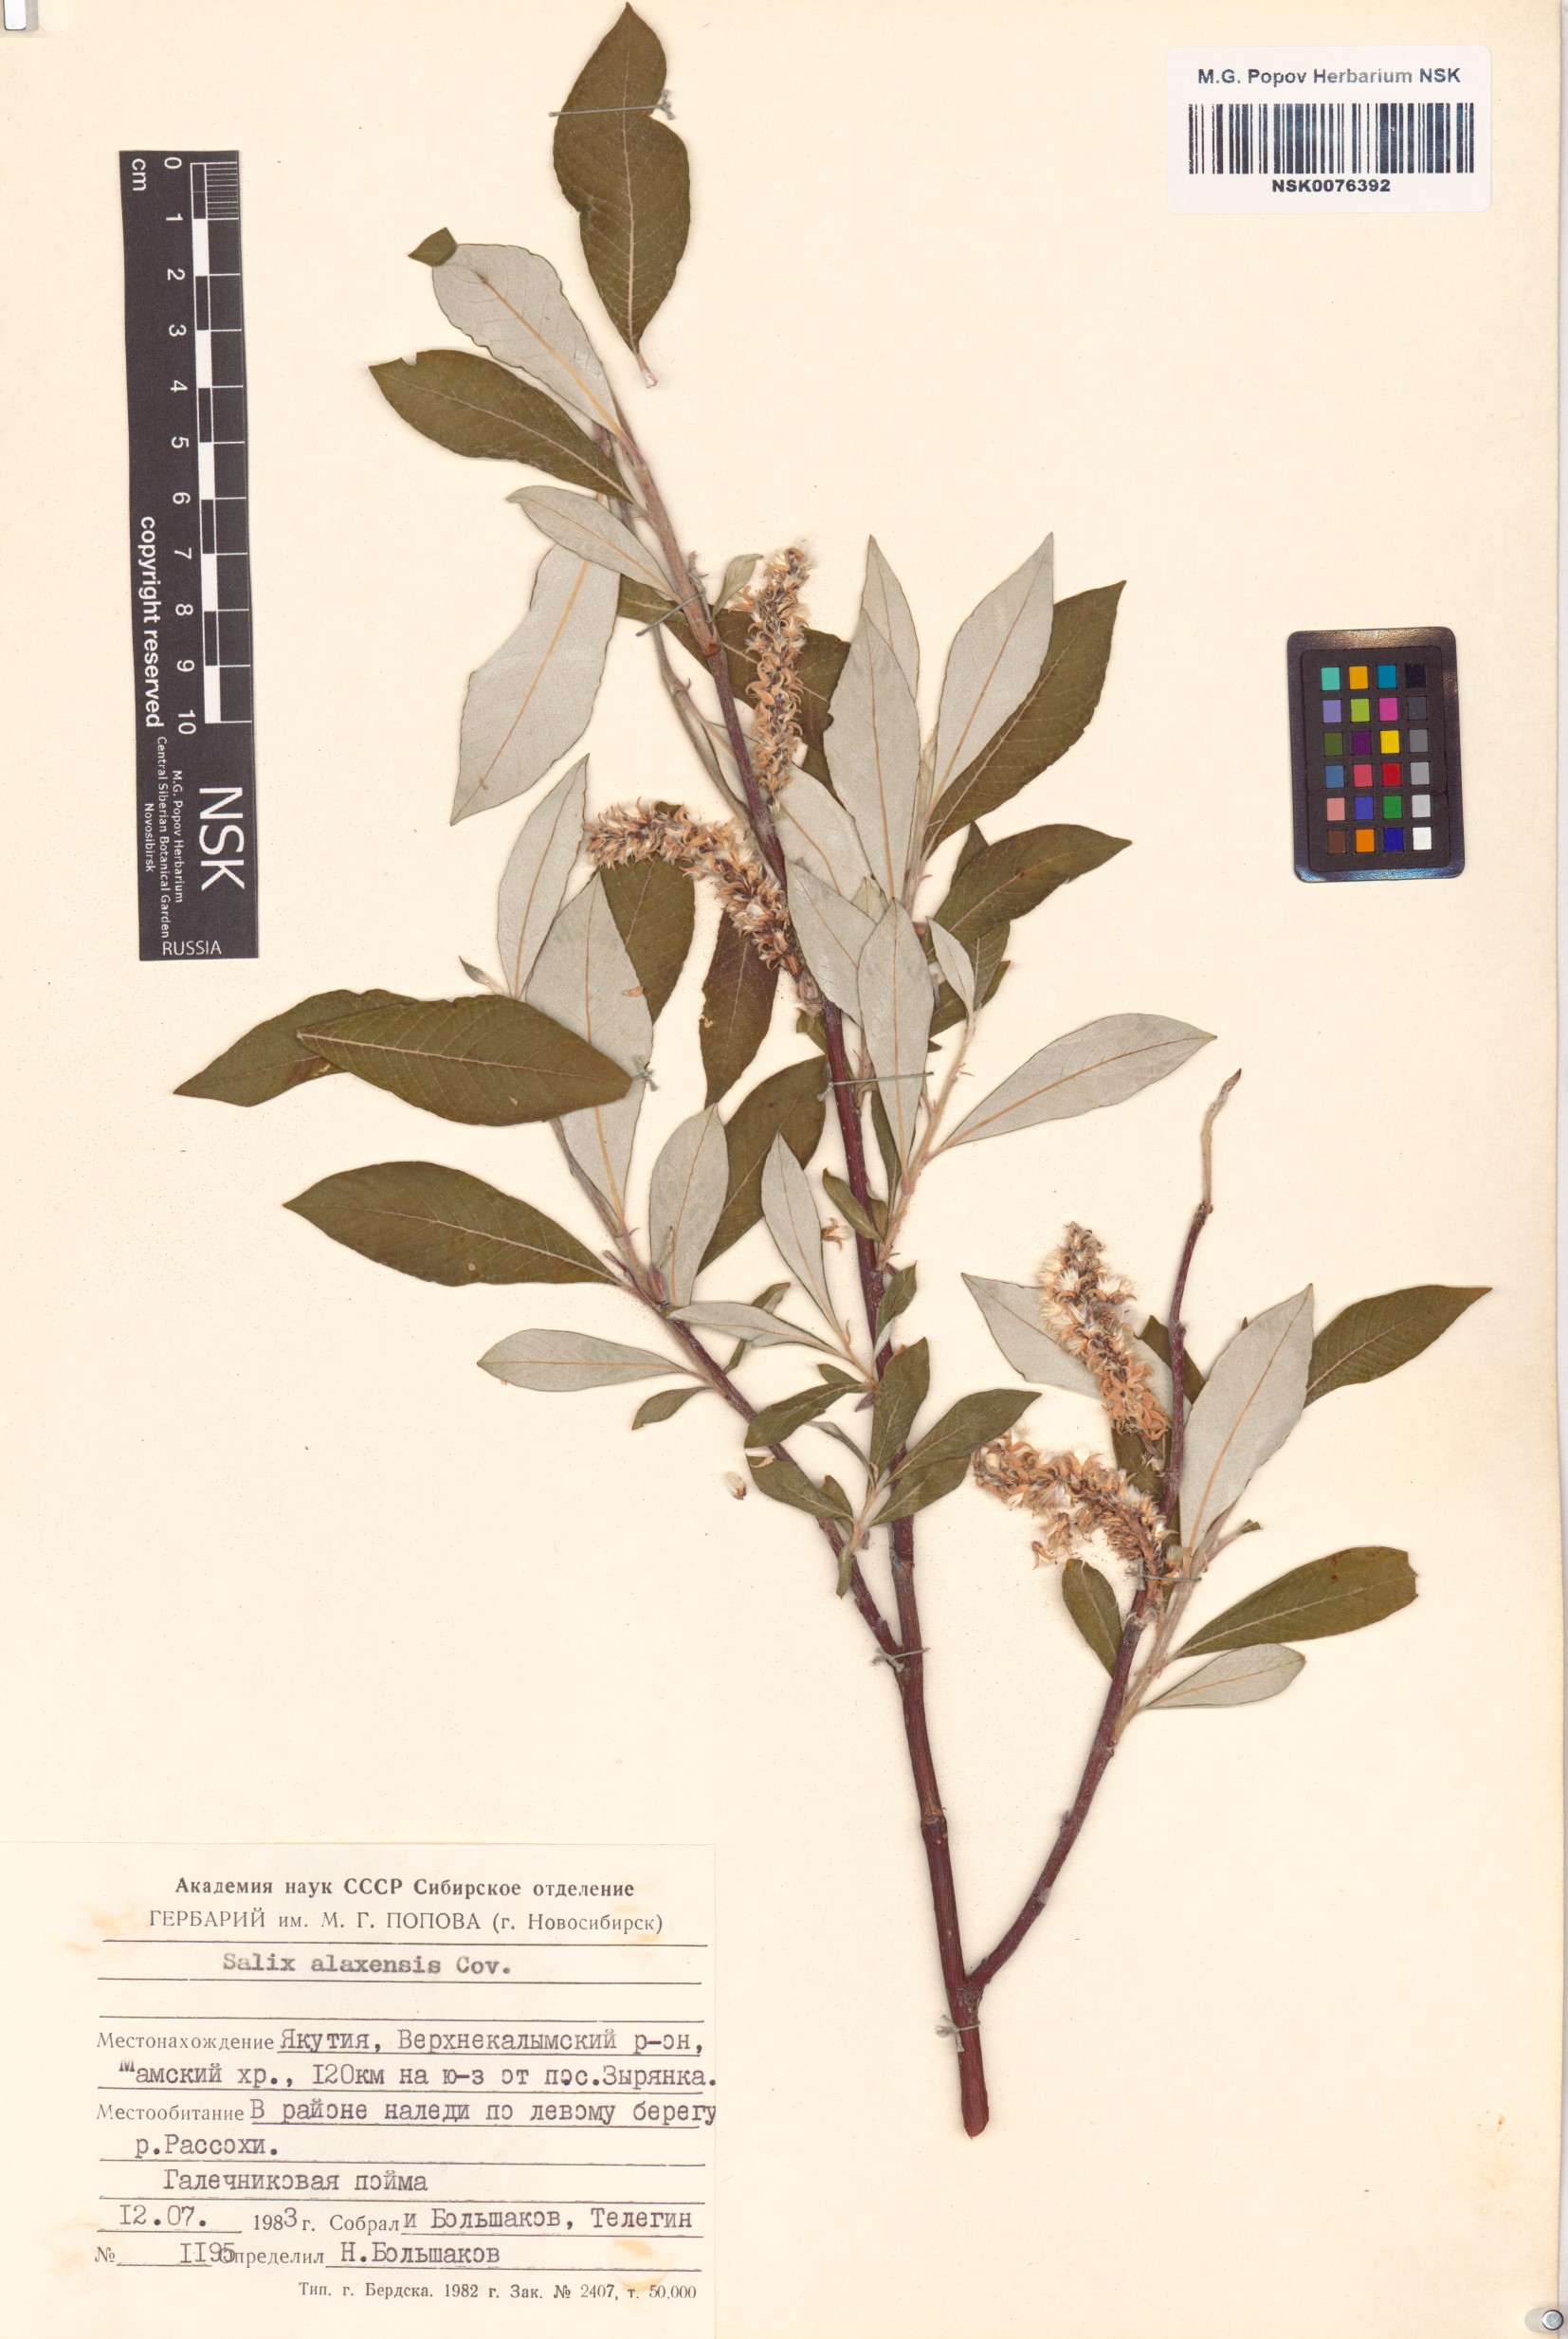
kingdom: Plantae
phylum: Tracheophyta
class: Magnoliopsida
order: Malpighiales
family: Salicaceae
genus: Salix
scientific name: Salix alaxensis
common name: Feltleaf willow
